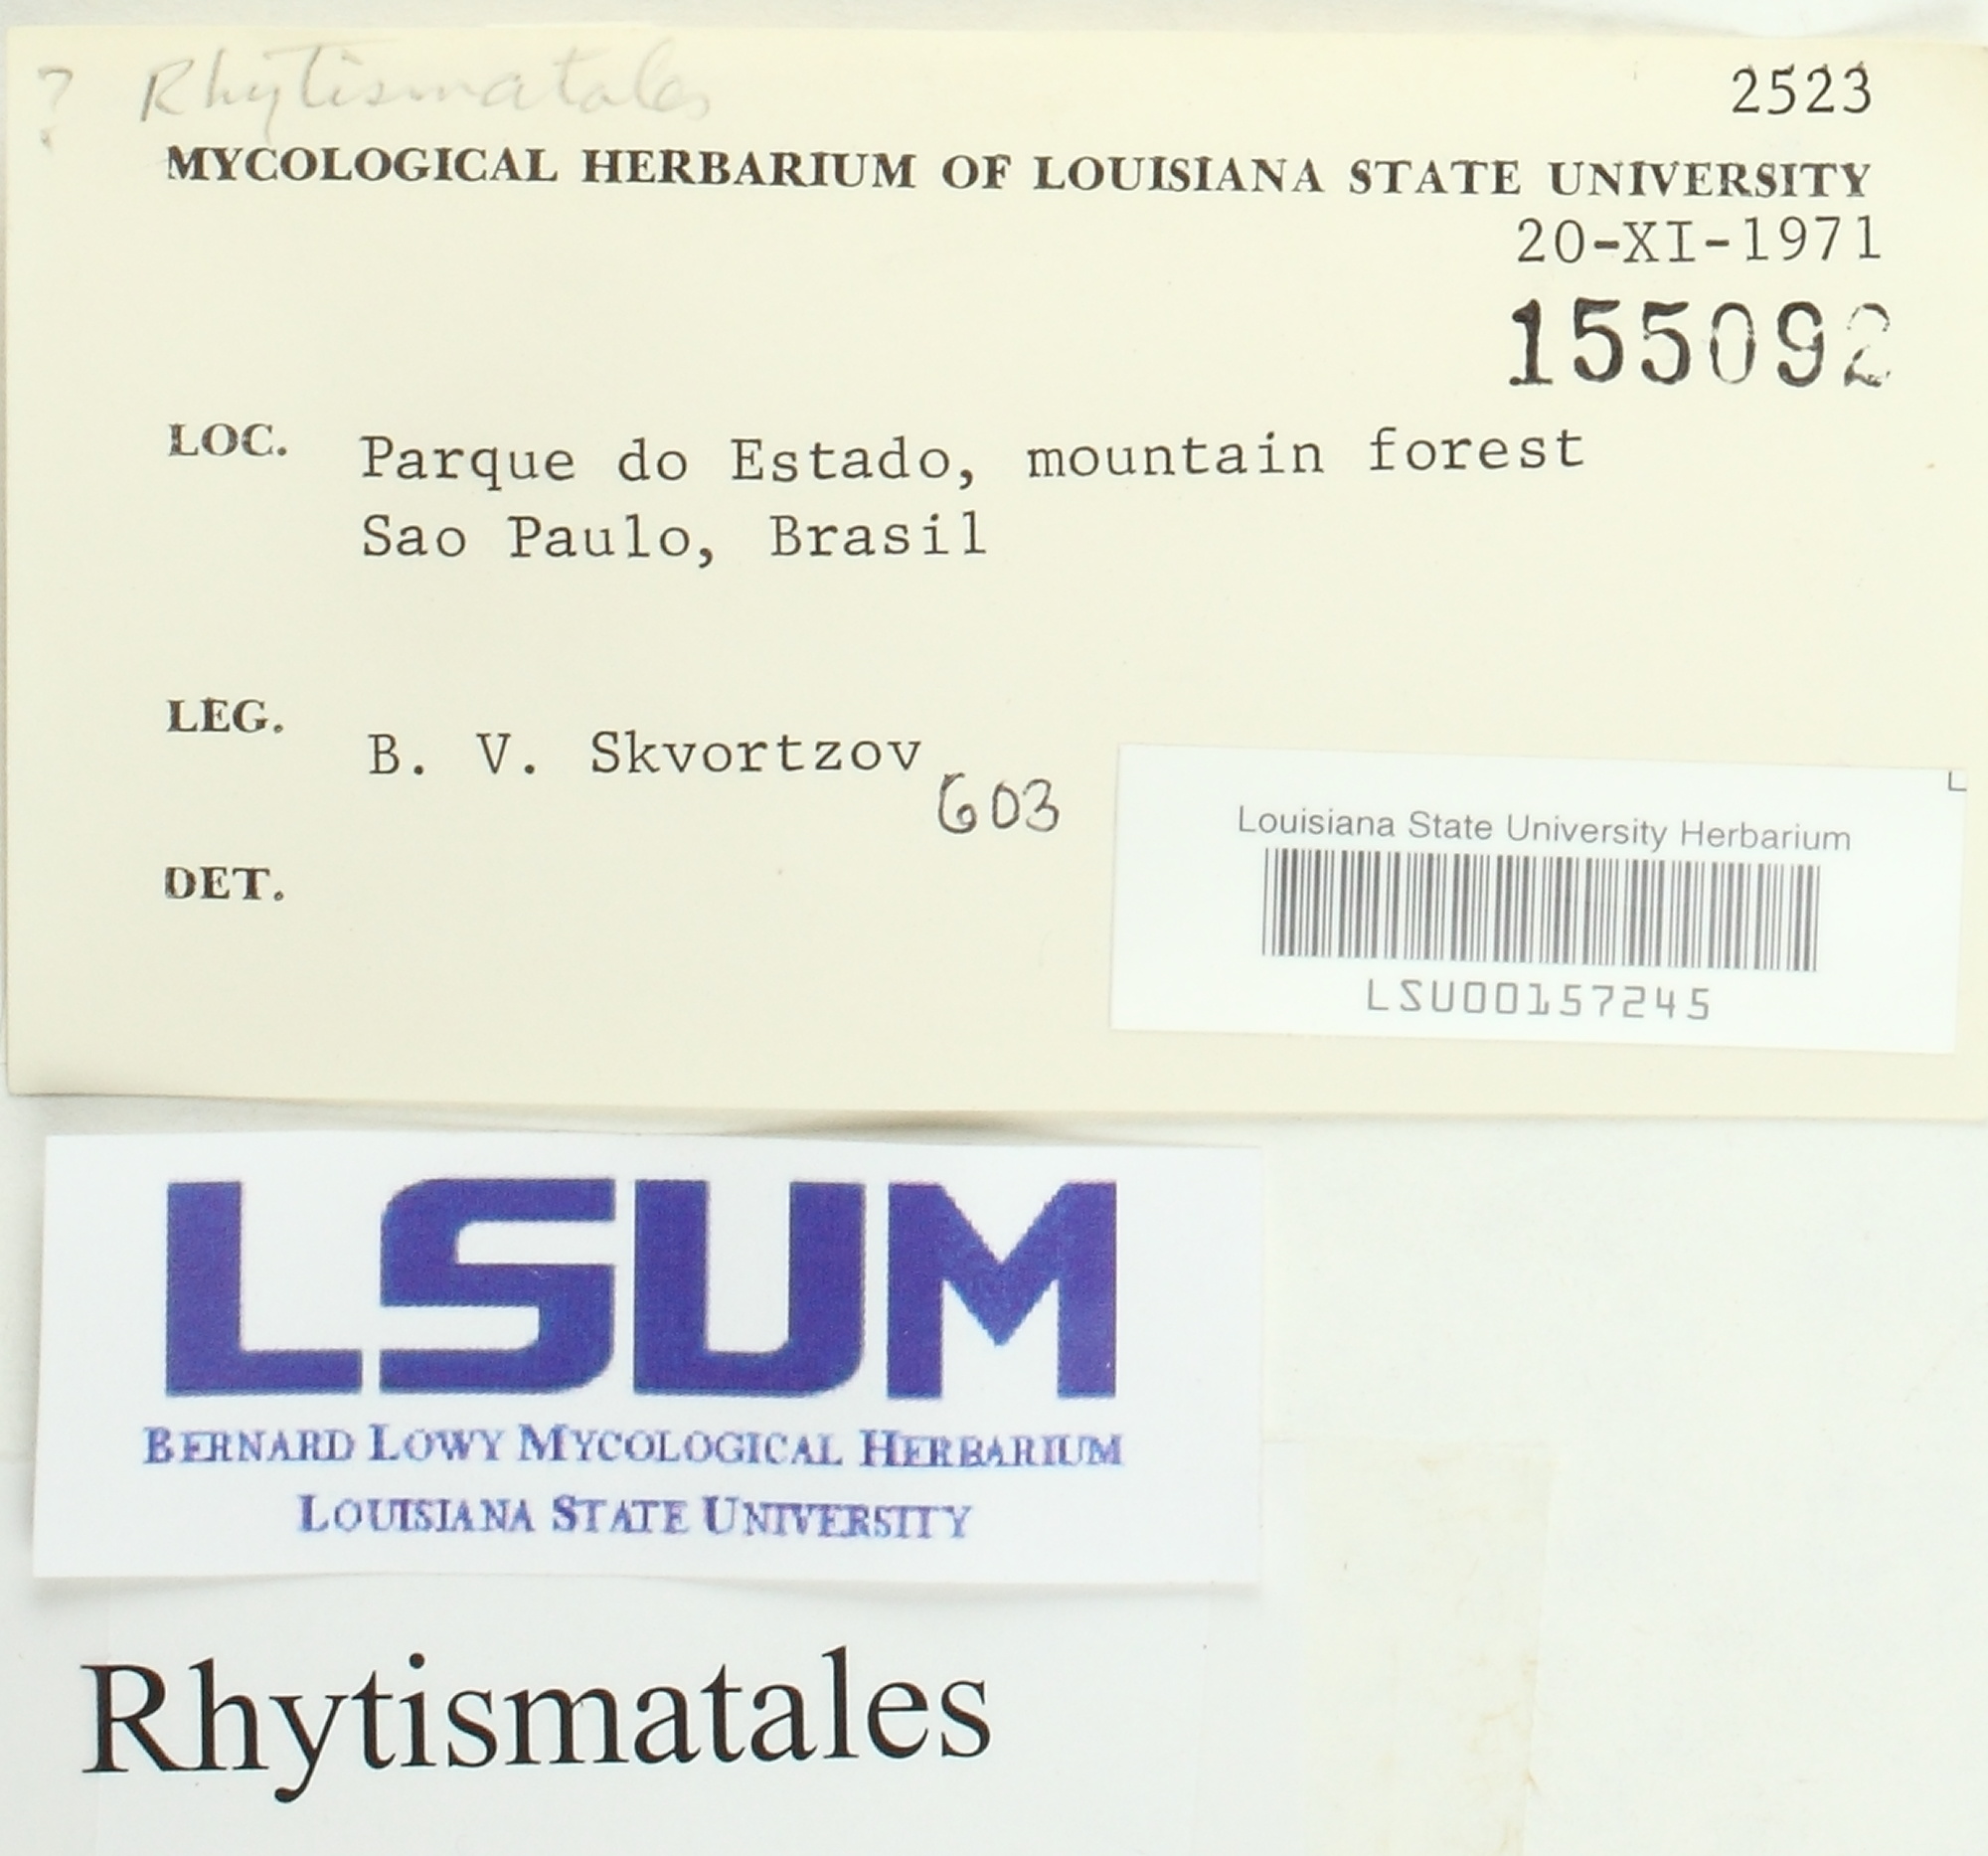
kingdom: Fungi
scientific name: Fungi
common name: Fungi
